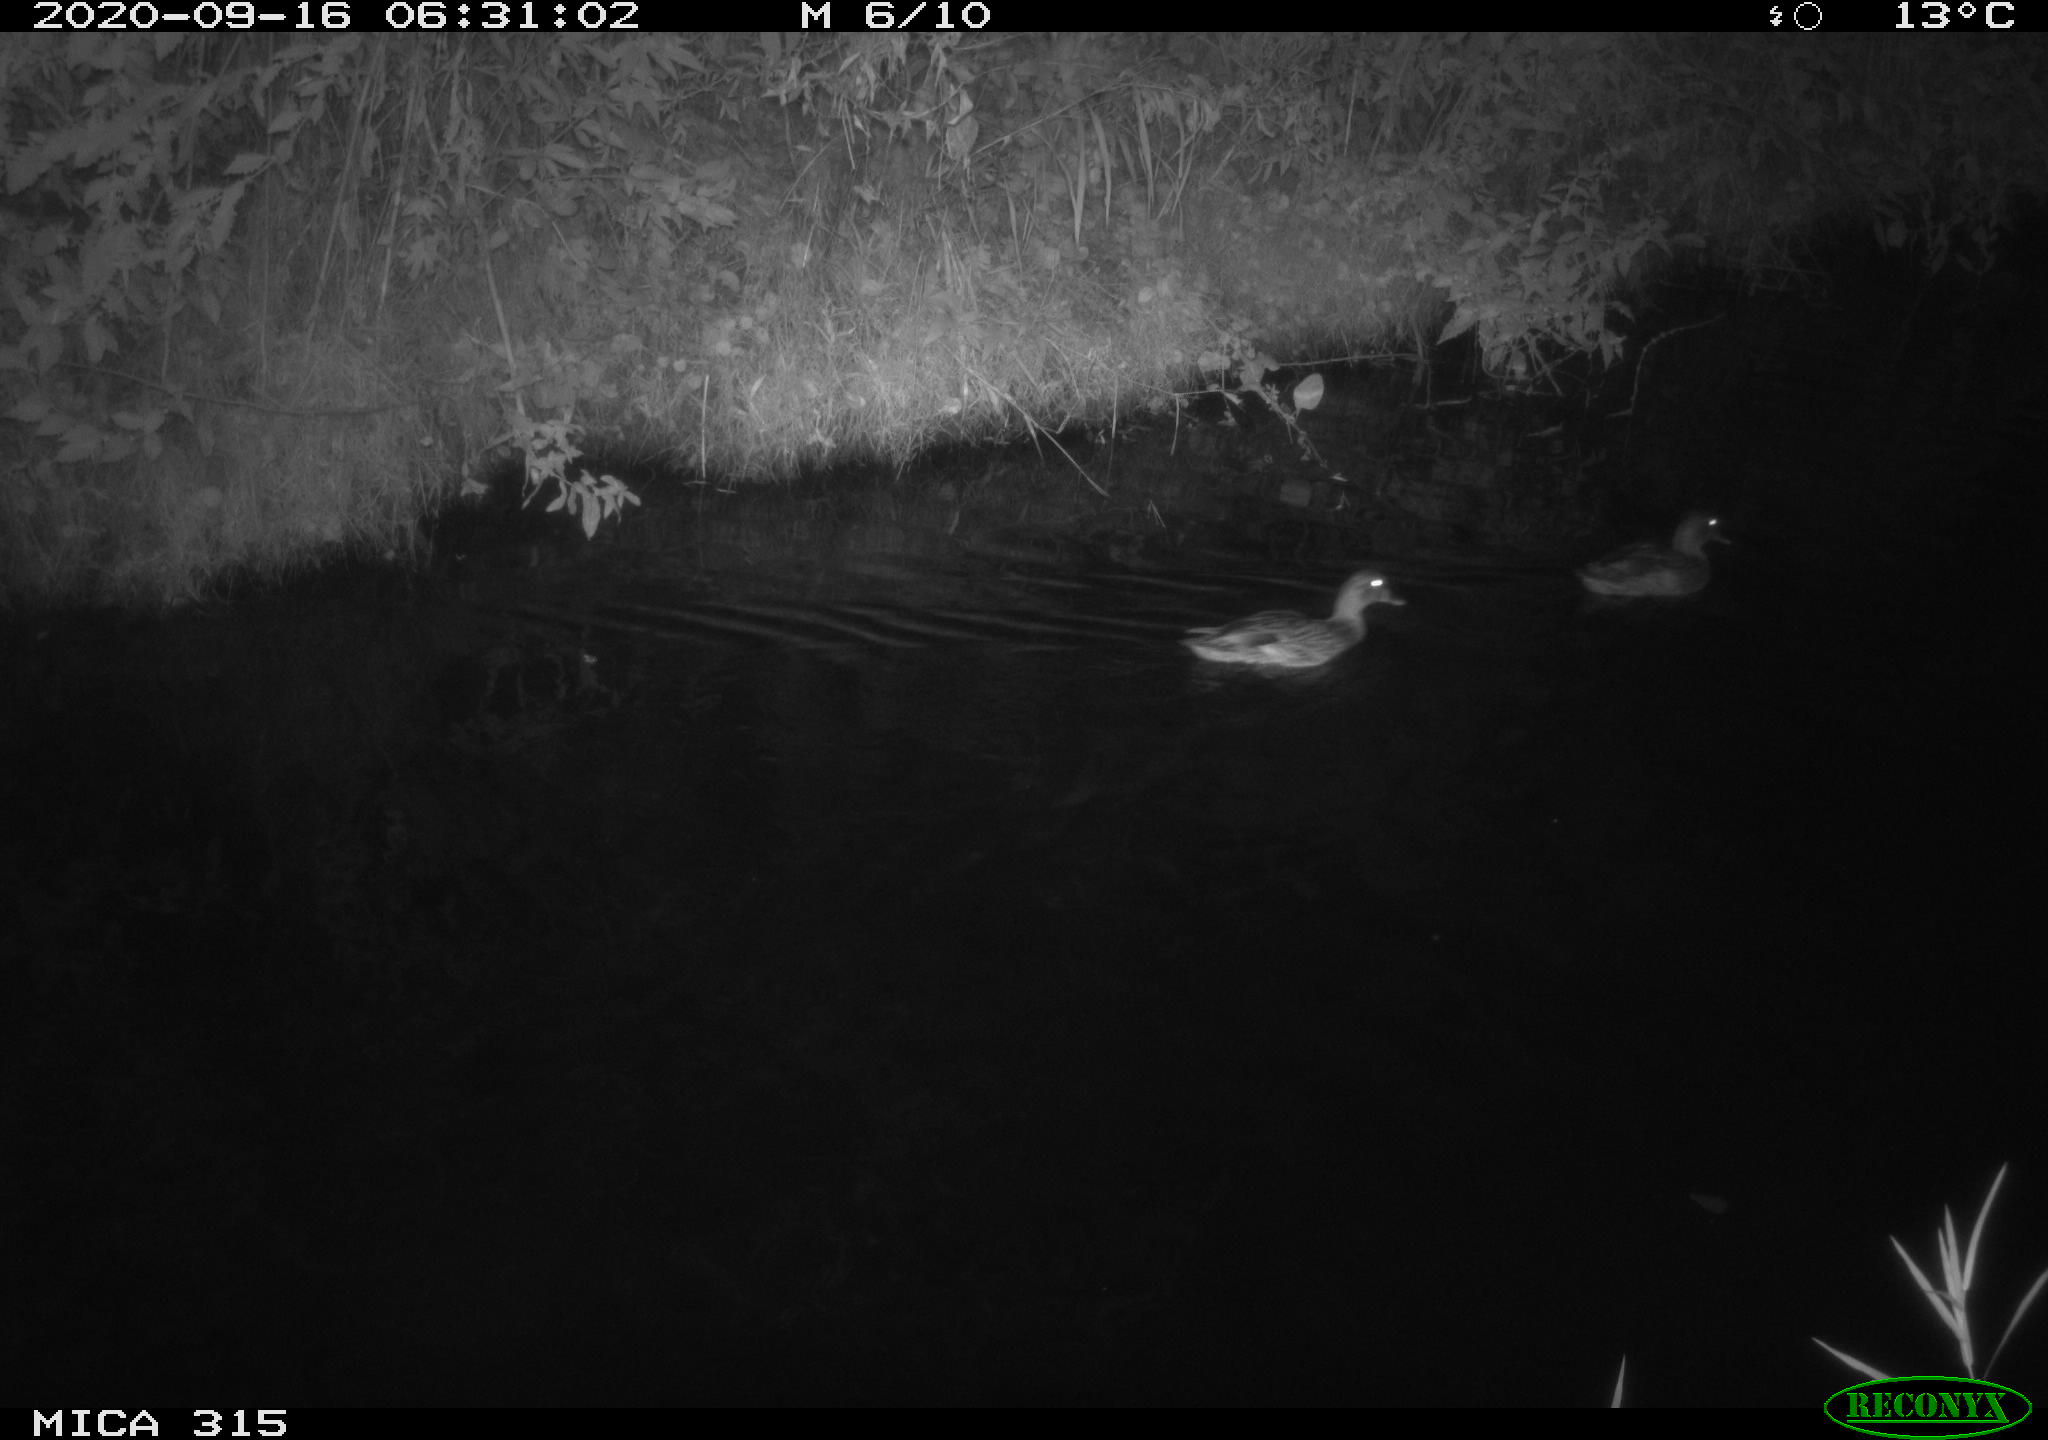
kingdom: Animalia
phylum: Chordata
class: Aves
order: Anseriformes
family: Anatidae
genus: Anas
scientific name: Anas platyrhynchos
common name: Mallard
